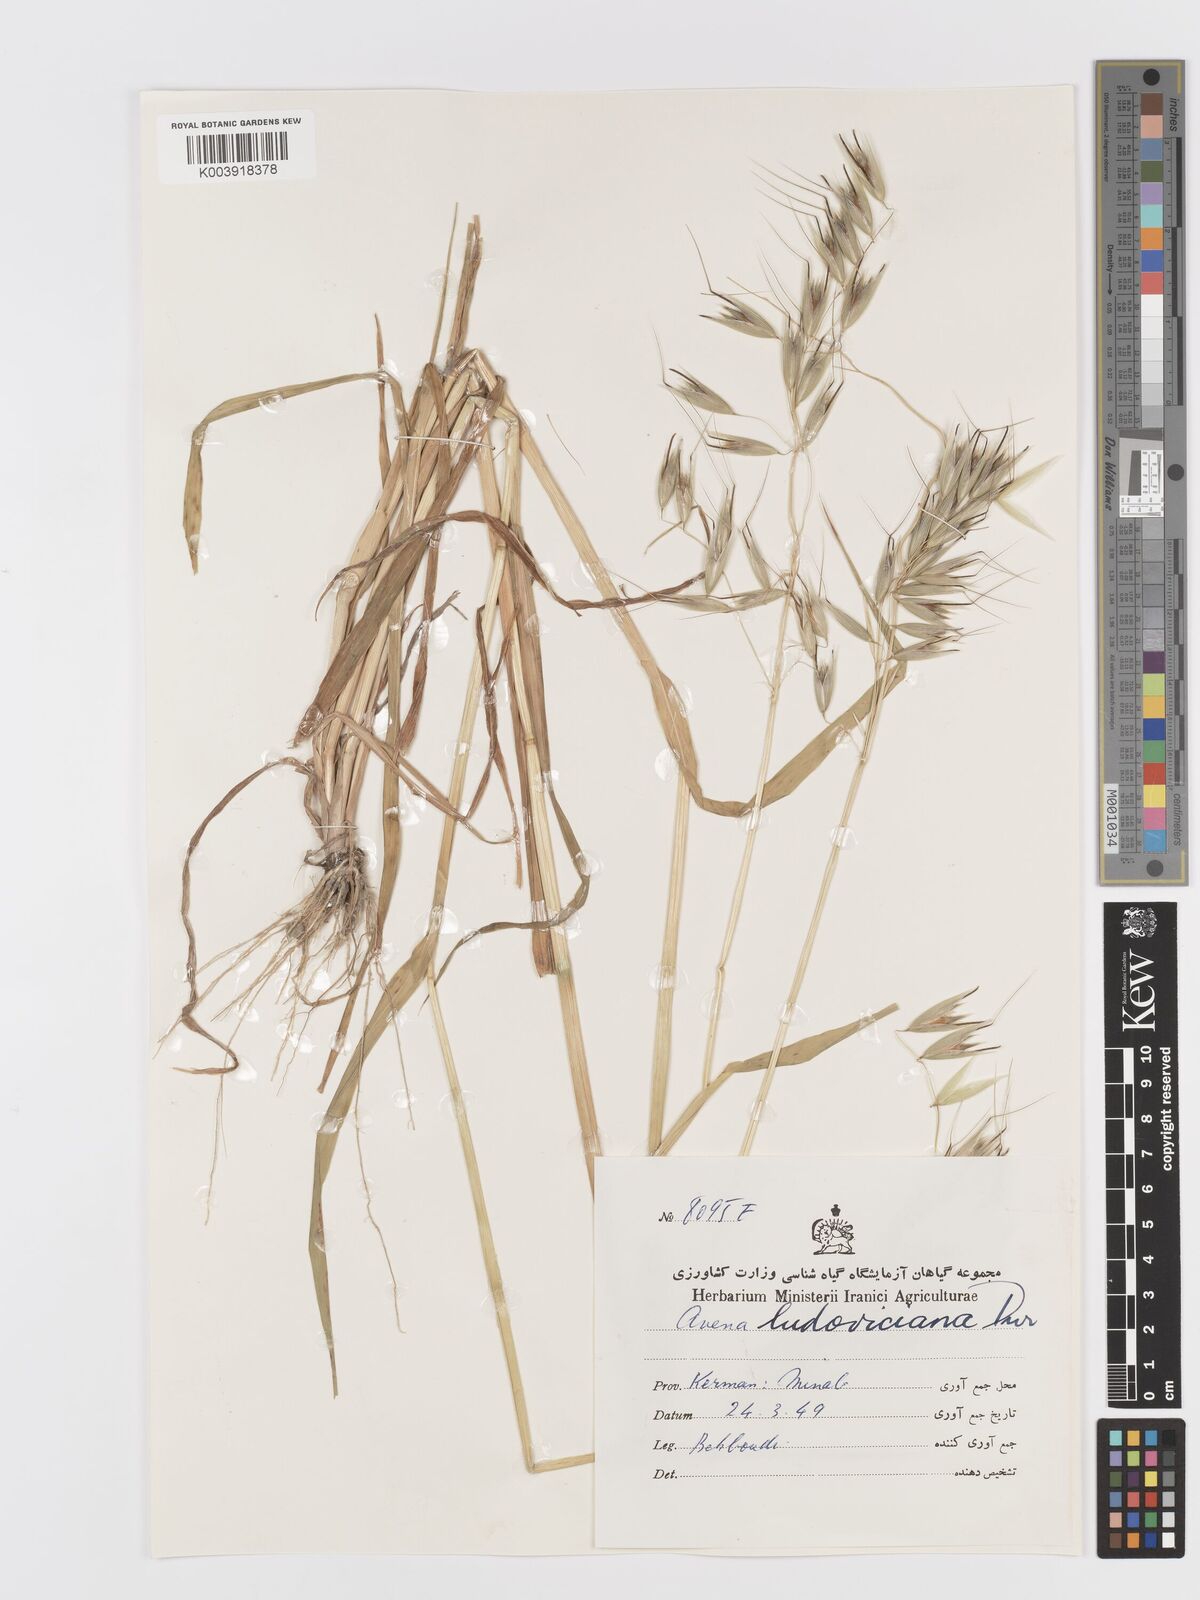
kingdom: Plantae
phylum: Tracheophyta
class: Liliopsida
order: Poales
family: Poaceae
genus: Avena
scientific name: Avena sterilis
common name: Animated oat
